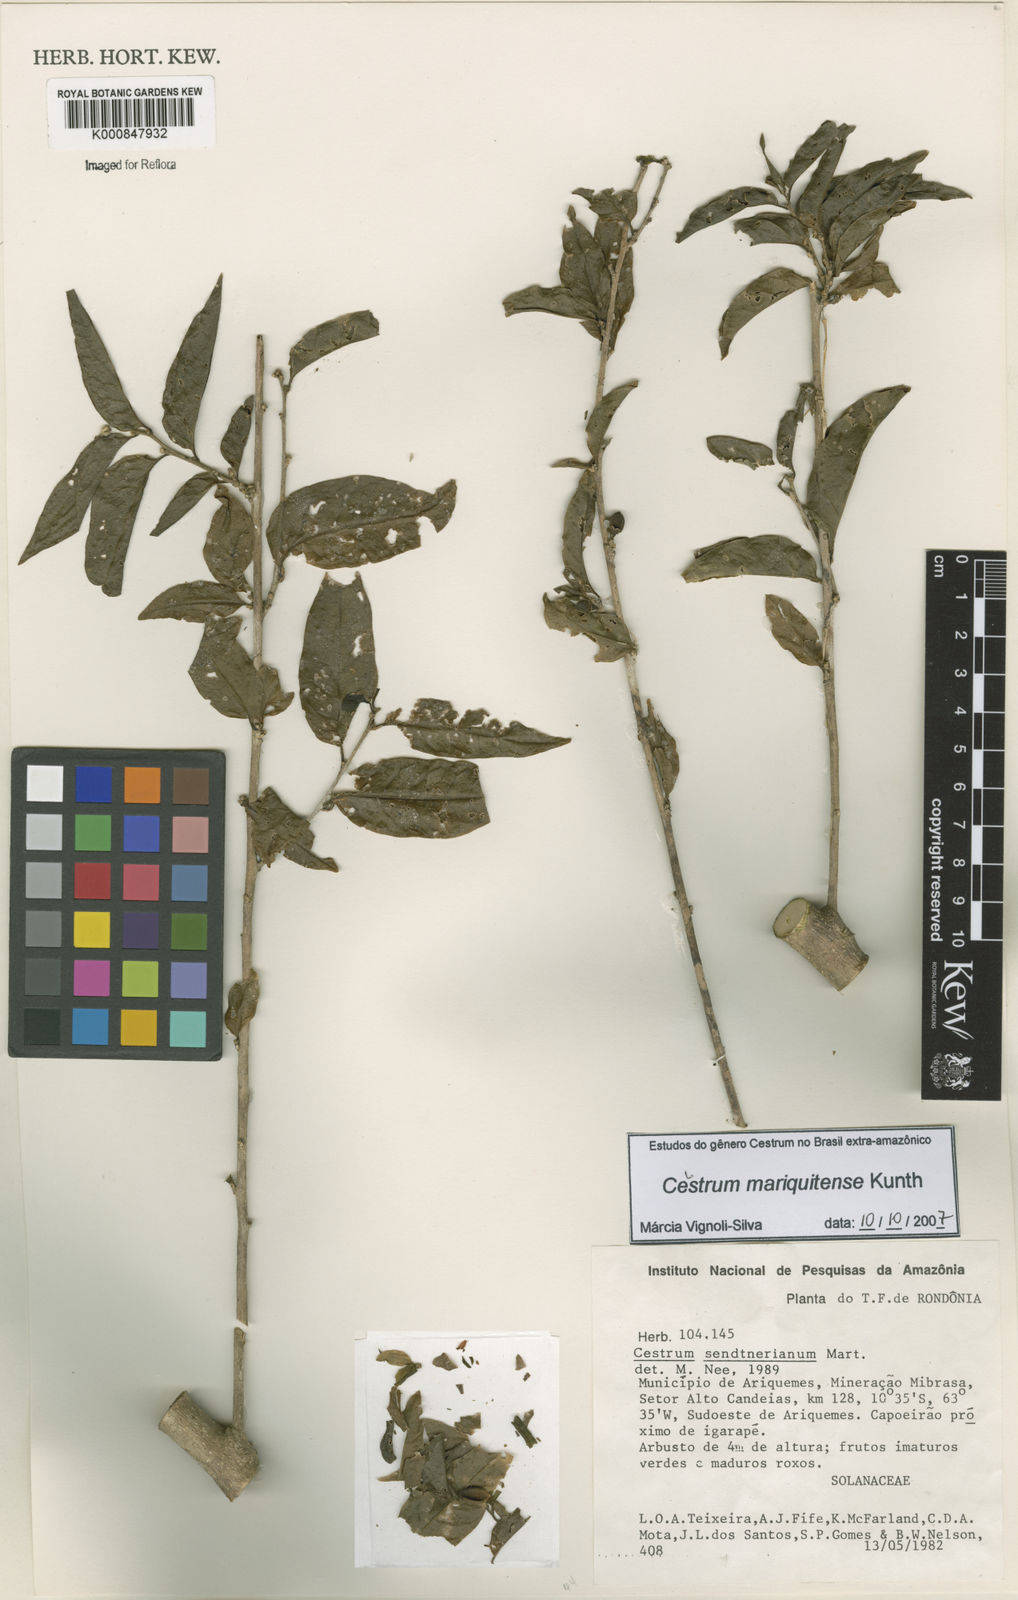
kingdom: Plantae
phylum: Tracheophyta
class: Magnoliopsida
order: Solanales
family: Solanaceae
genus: Cestrum
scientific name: Cestrum mariquitense
